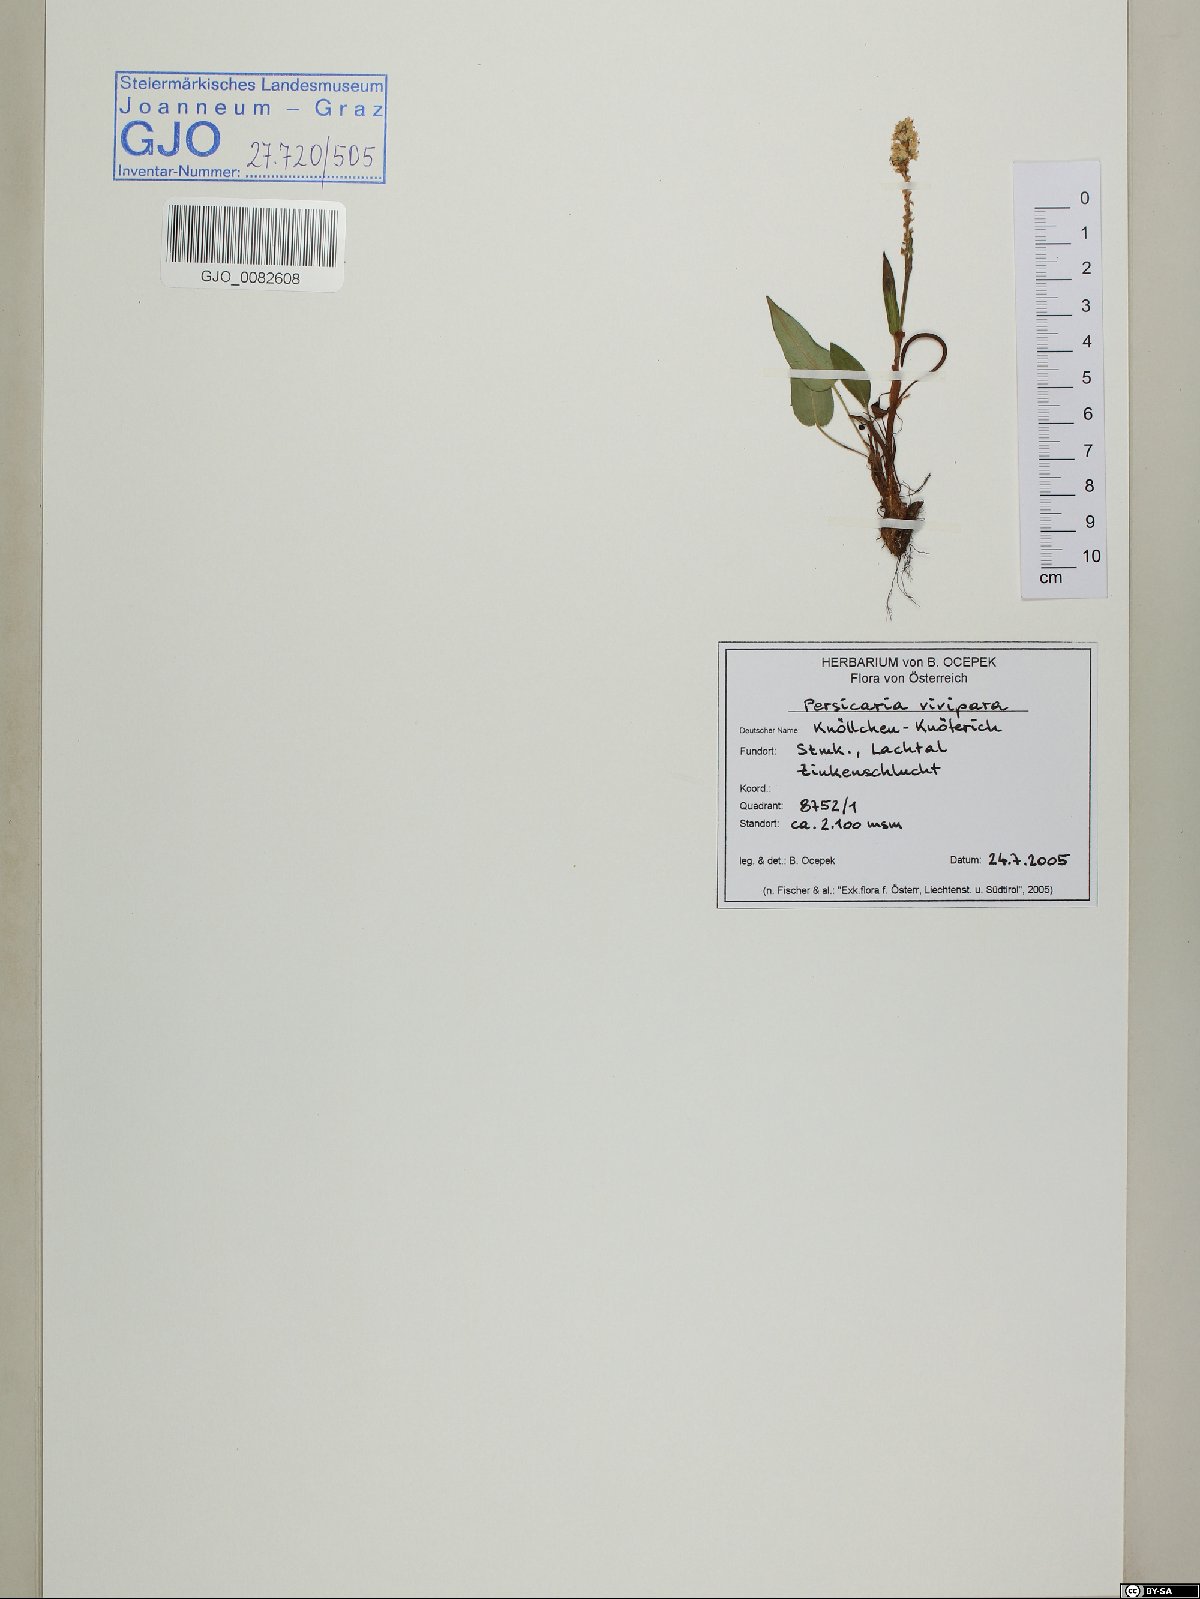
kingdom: Plantae
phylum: Tracheophyta
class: Magnoliopsida
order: Caryophyllales
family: Polygonaceae
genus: Bistorta
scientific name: Bistorta vivipara
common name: Alpine bistort
